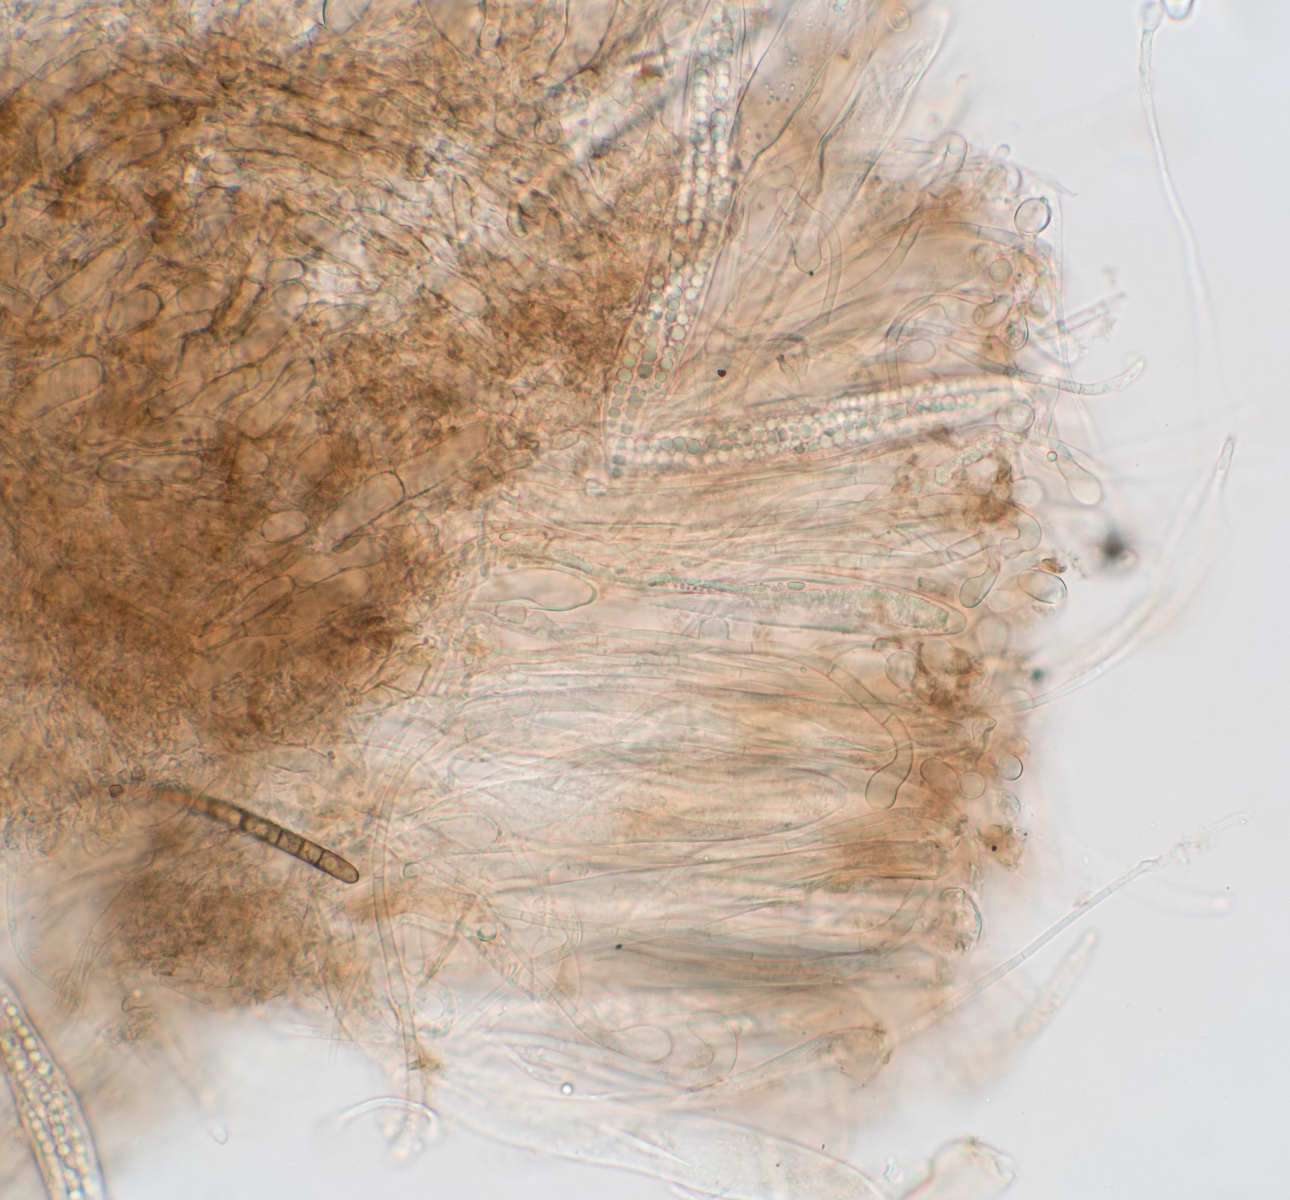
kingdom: Fungi
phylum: Ascomycota
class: Geoglossomycetes
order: Geoglossales
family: Geoglossaceae
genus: Hemileucoglossum
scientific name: Hemileucoglossum elongatum
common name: småsporet jordtunge
